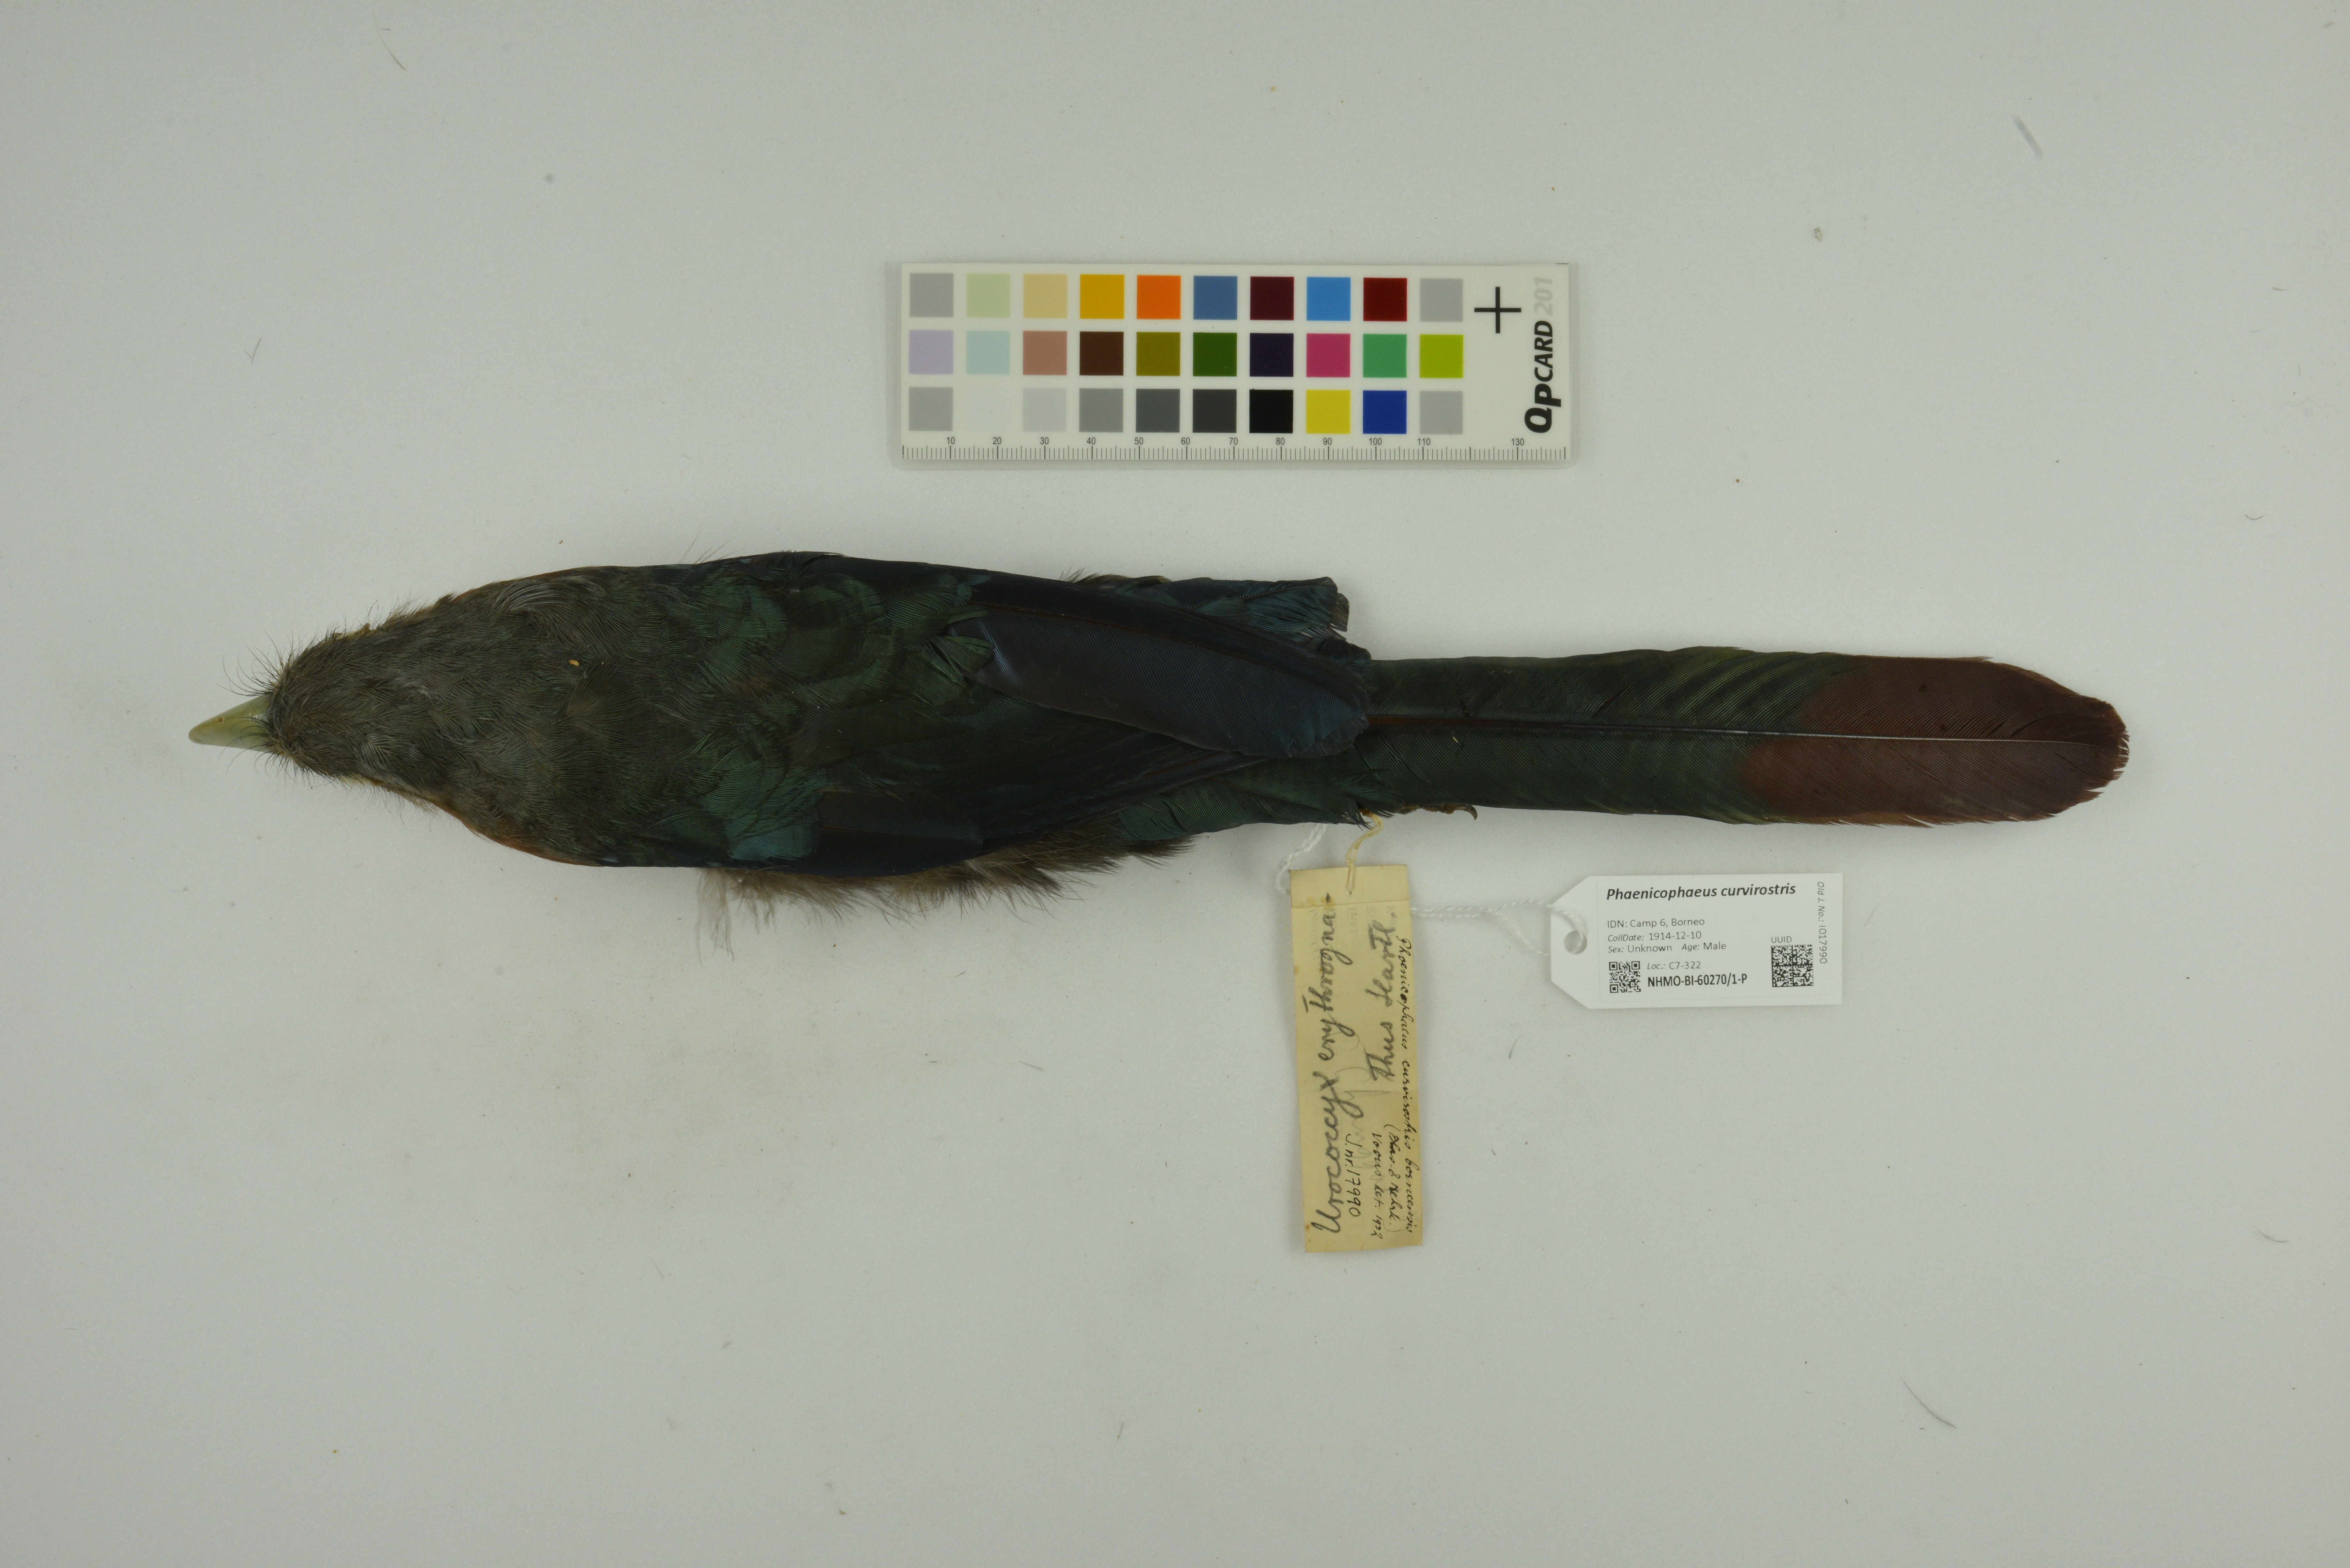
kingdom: Animalia
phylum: Chordata
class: Aves
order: Cuculiformes
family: Cuculidae
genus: Zanclostomus
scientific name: Zanclostomus curvirostris
